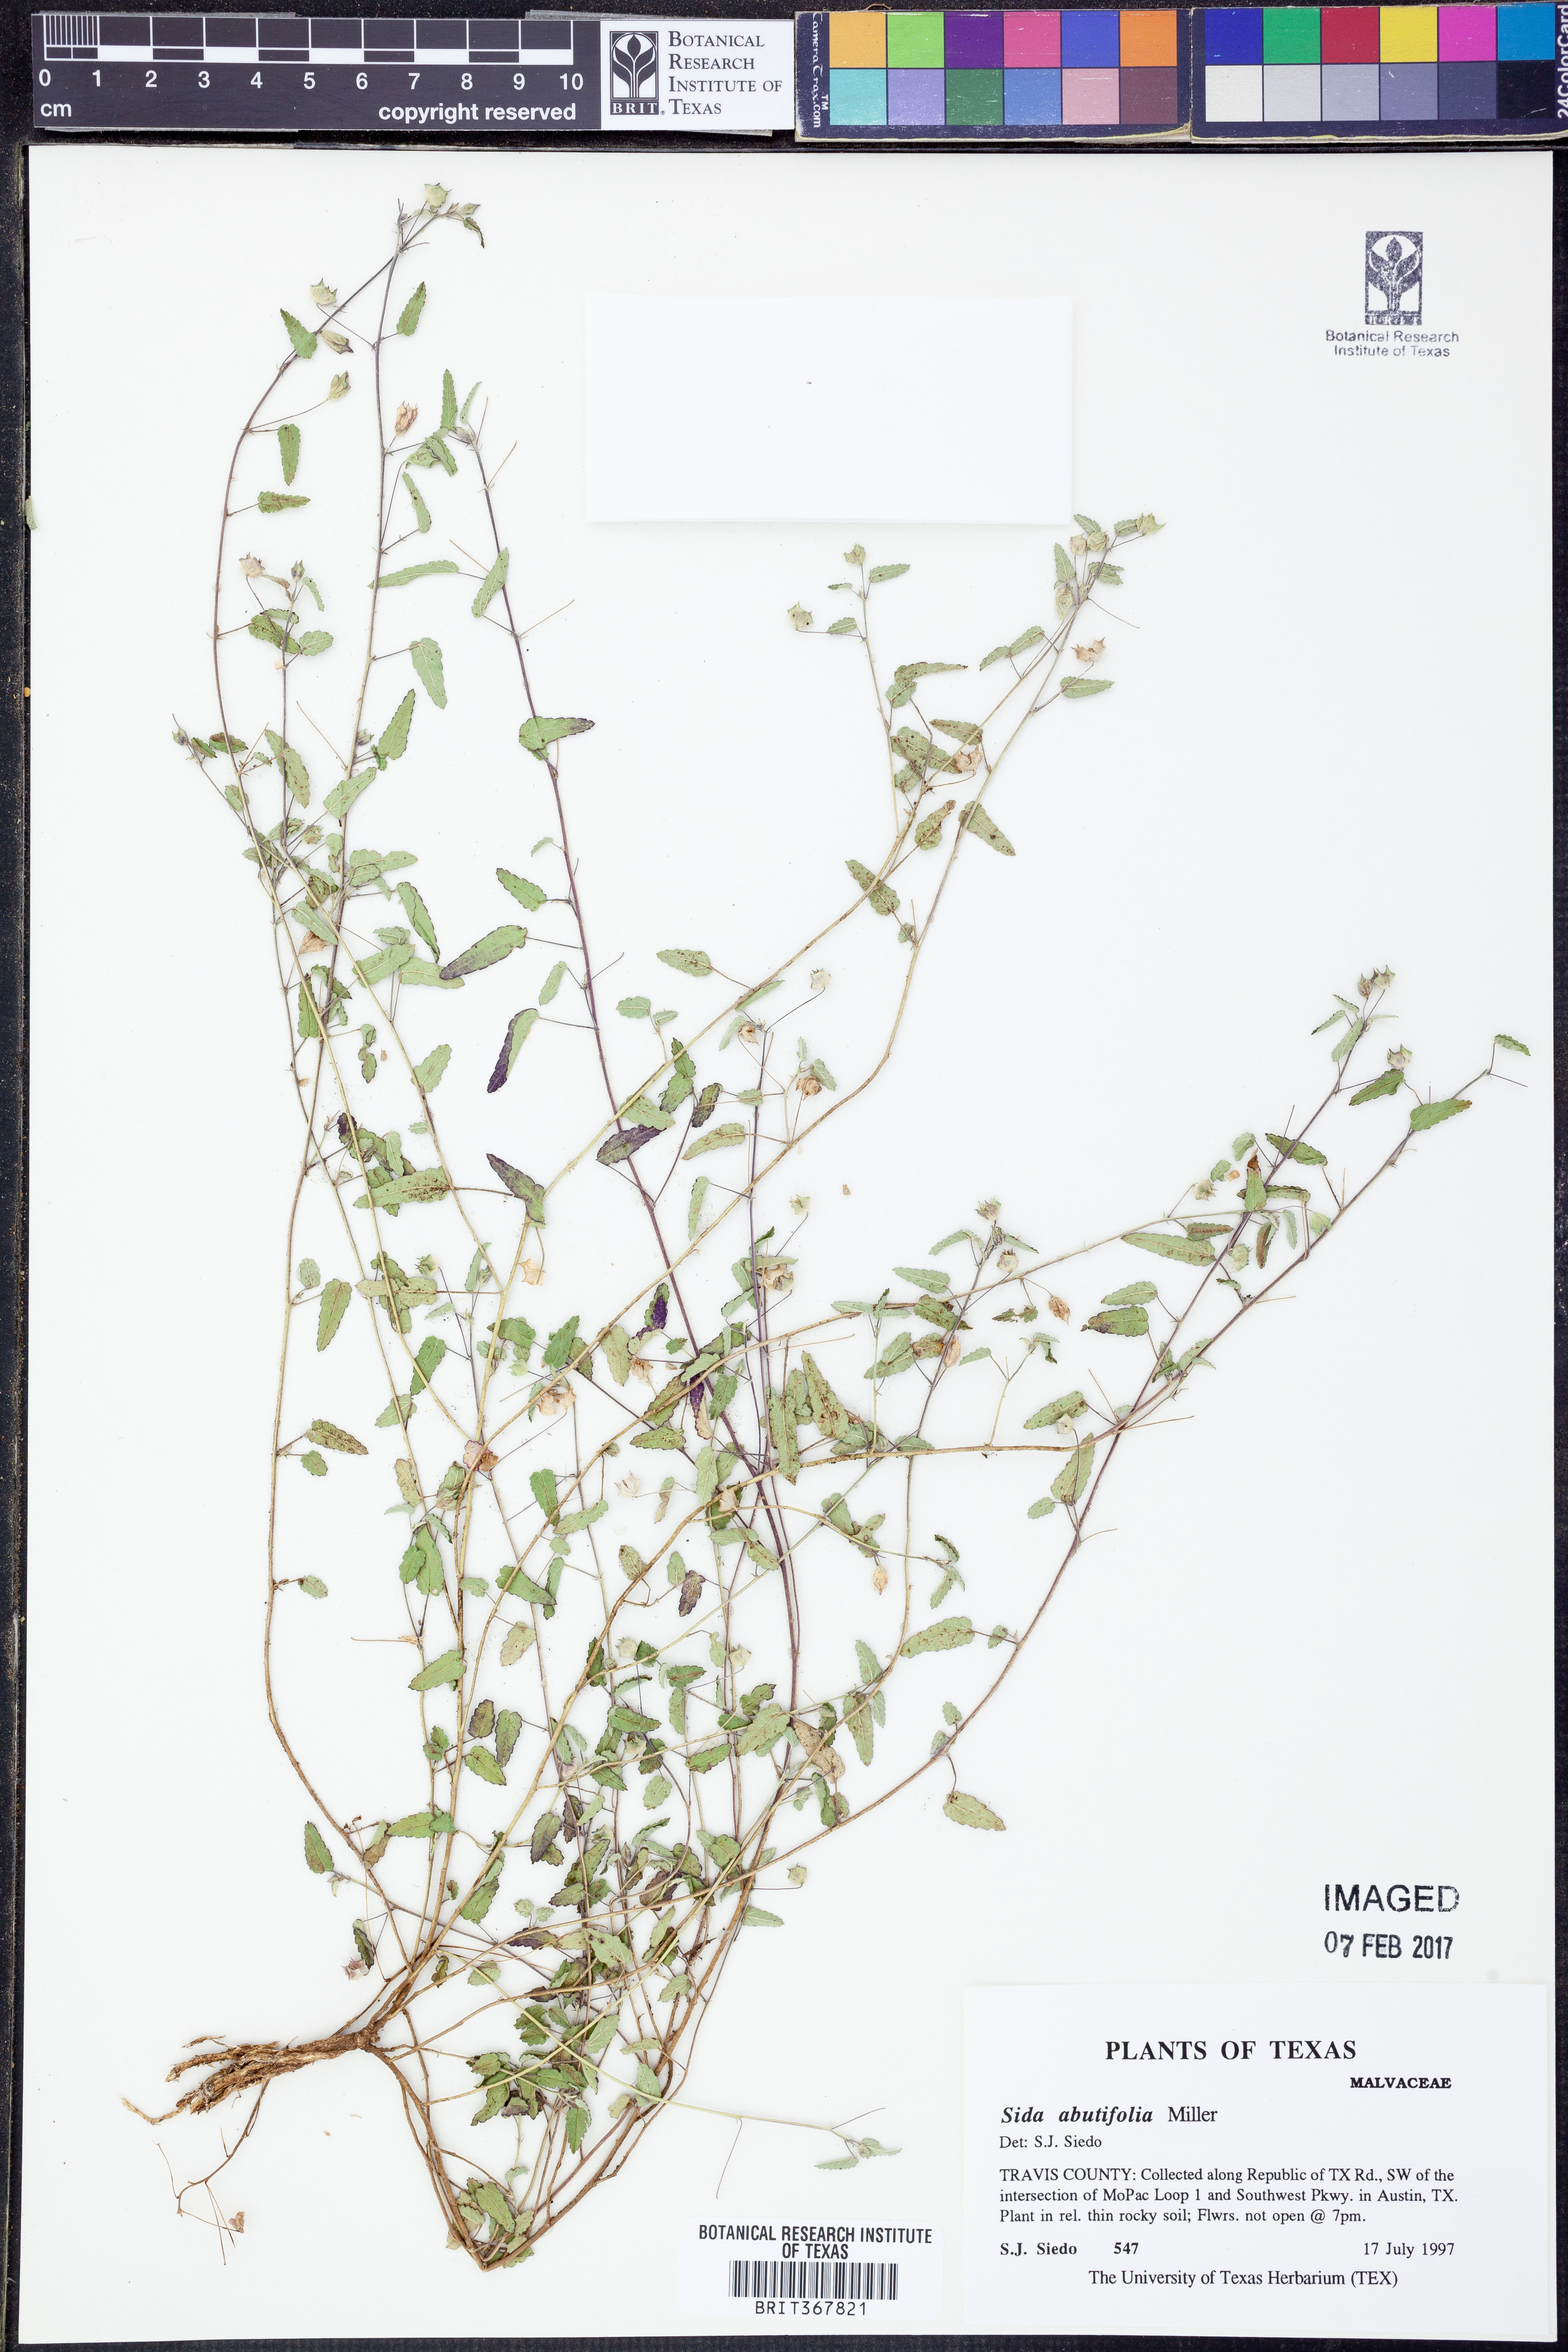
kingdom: Plantae
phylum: Tracheophyta
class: Magnoliopsida
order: Malvales
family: Malvaceae
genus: Sida
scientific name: Sida abutifolia
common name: Spreading fantails
